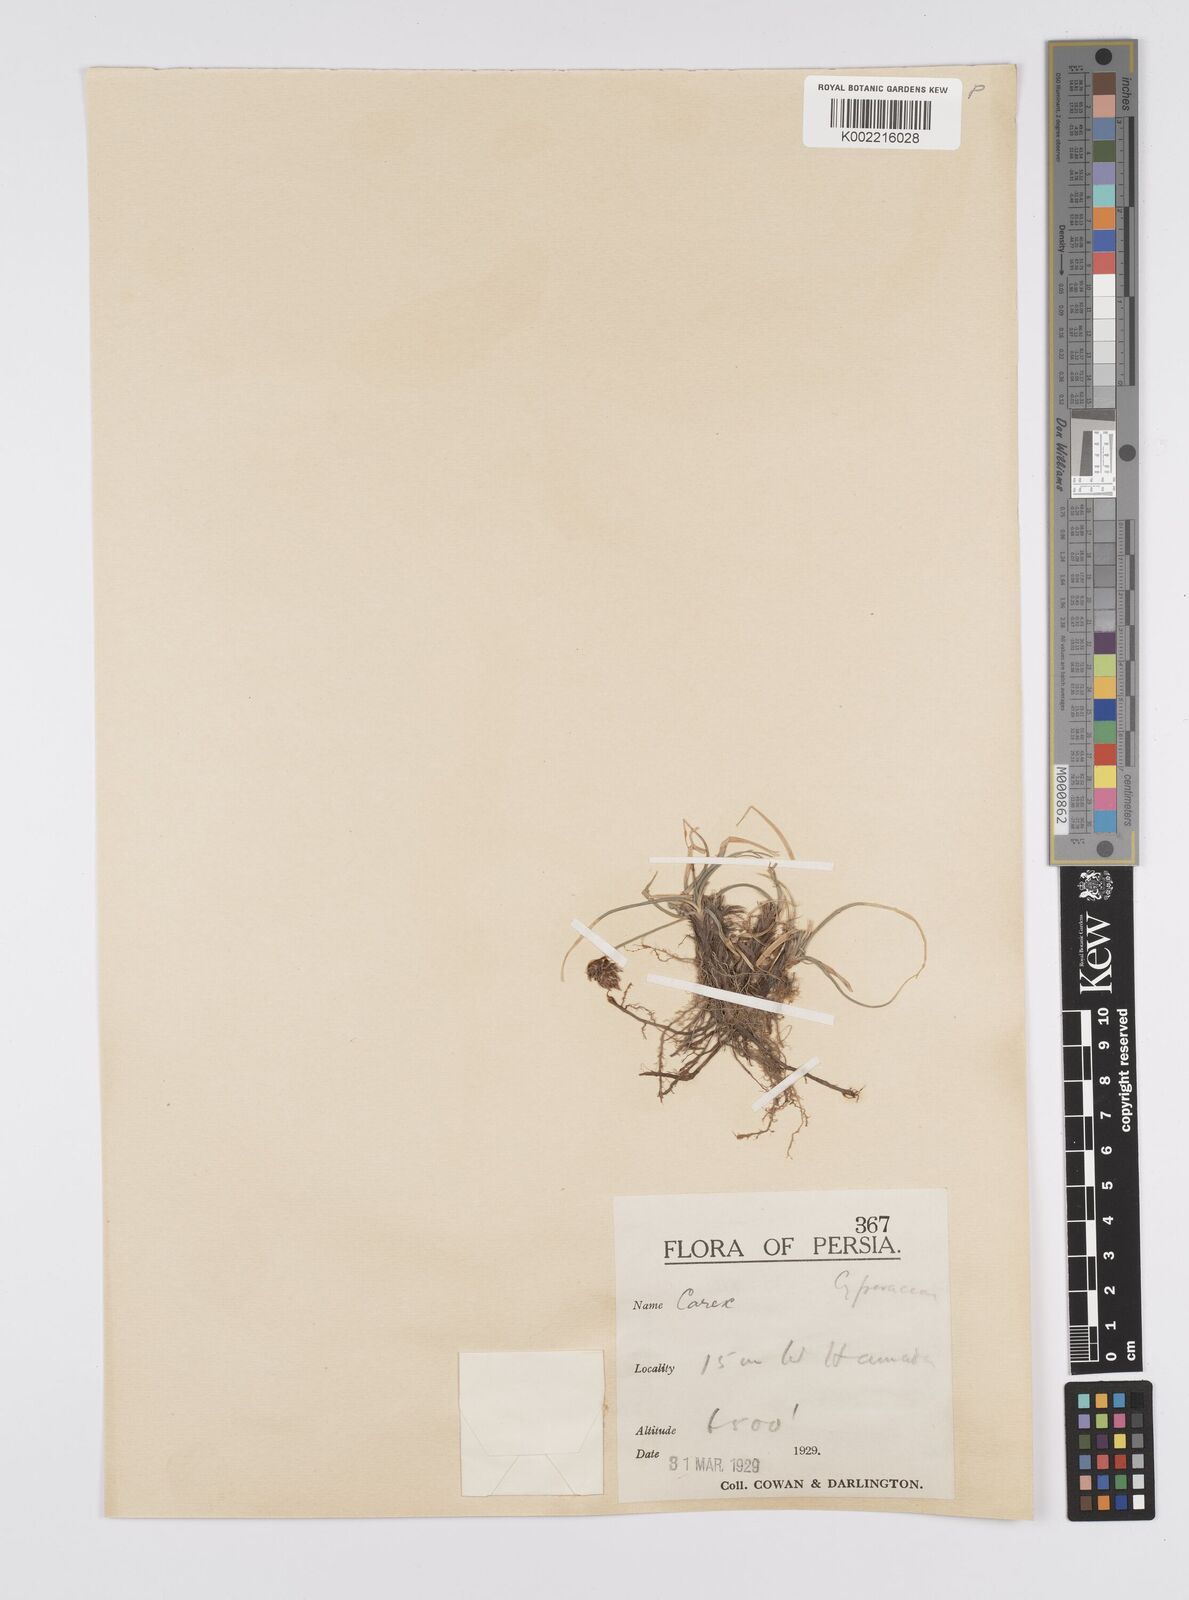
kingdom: Plantae
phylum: Tracheophyta
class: Liliopsida
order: Poales
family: Cyperaceae
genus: Carex
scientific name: Carex pachystylis
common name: Thick-stem sedge
